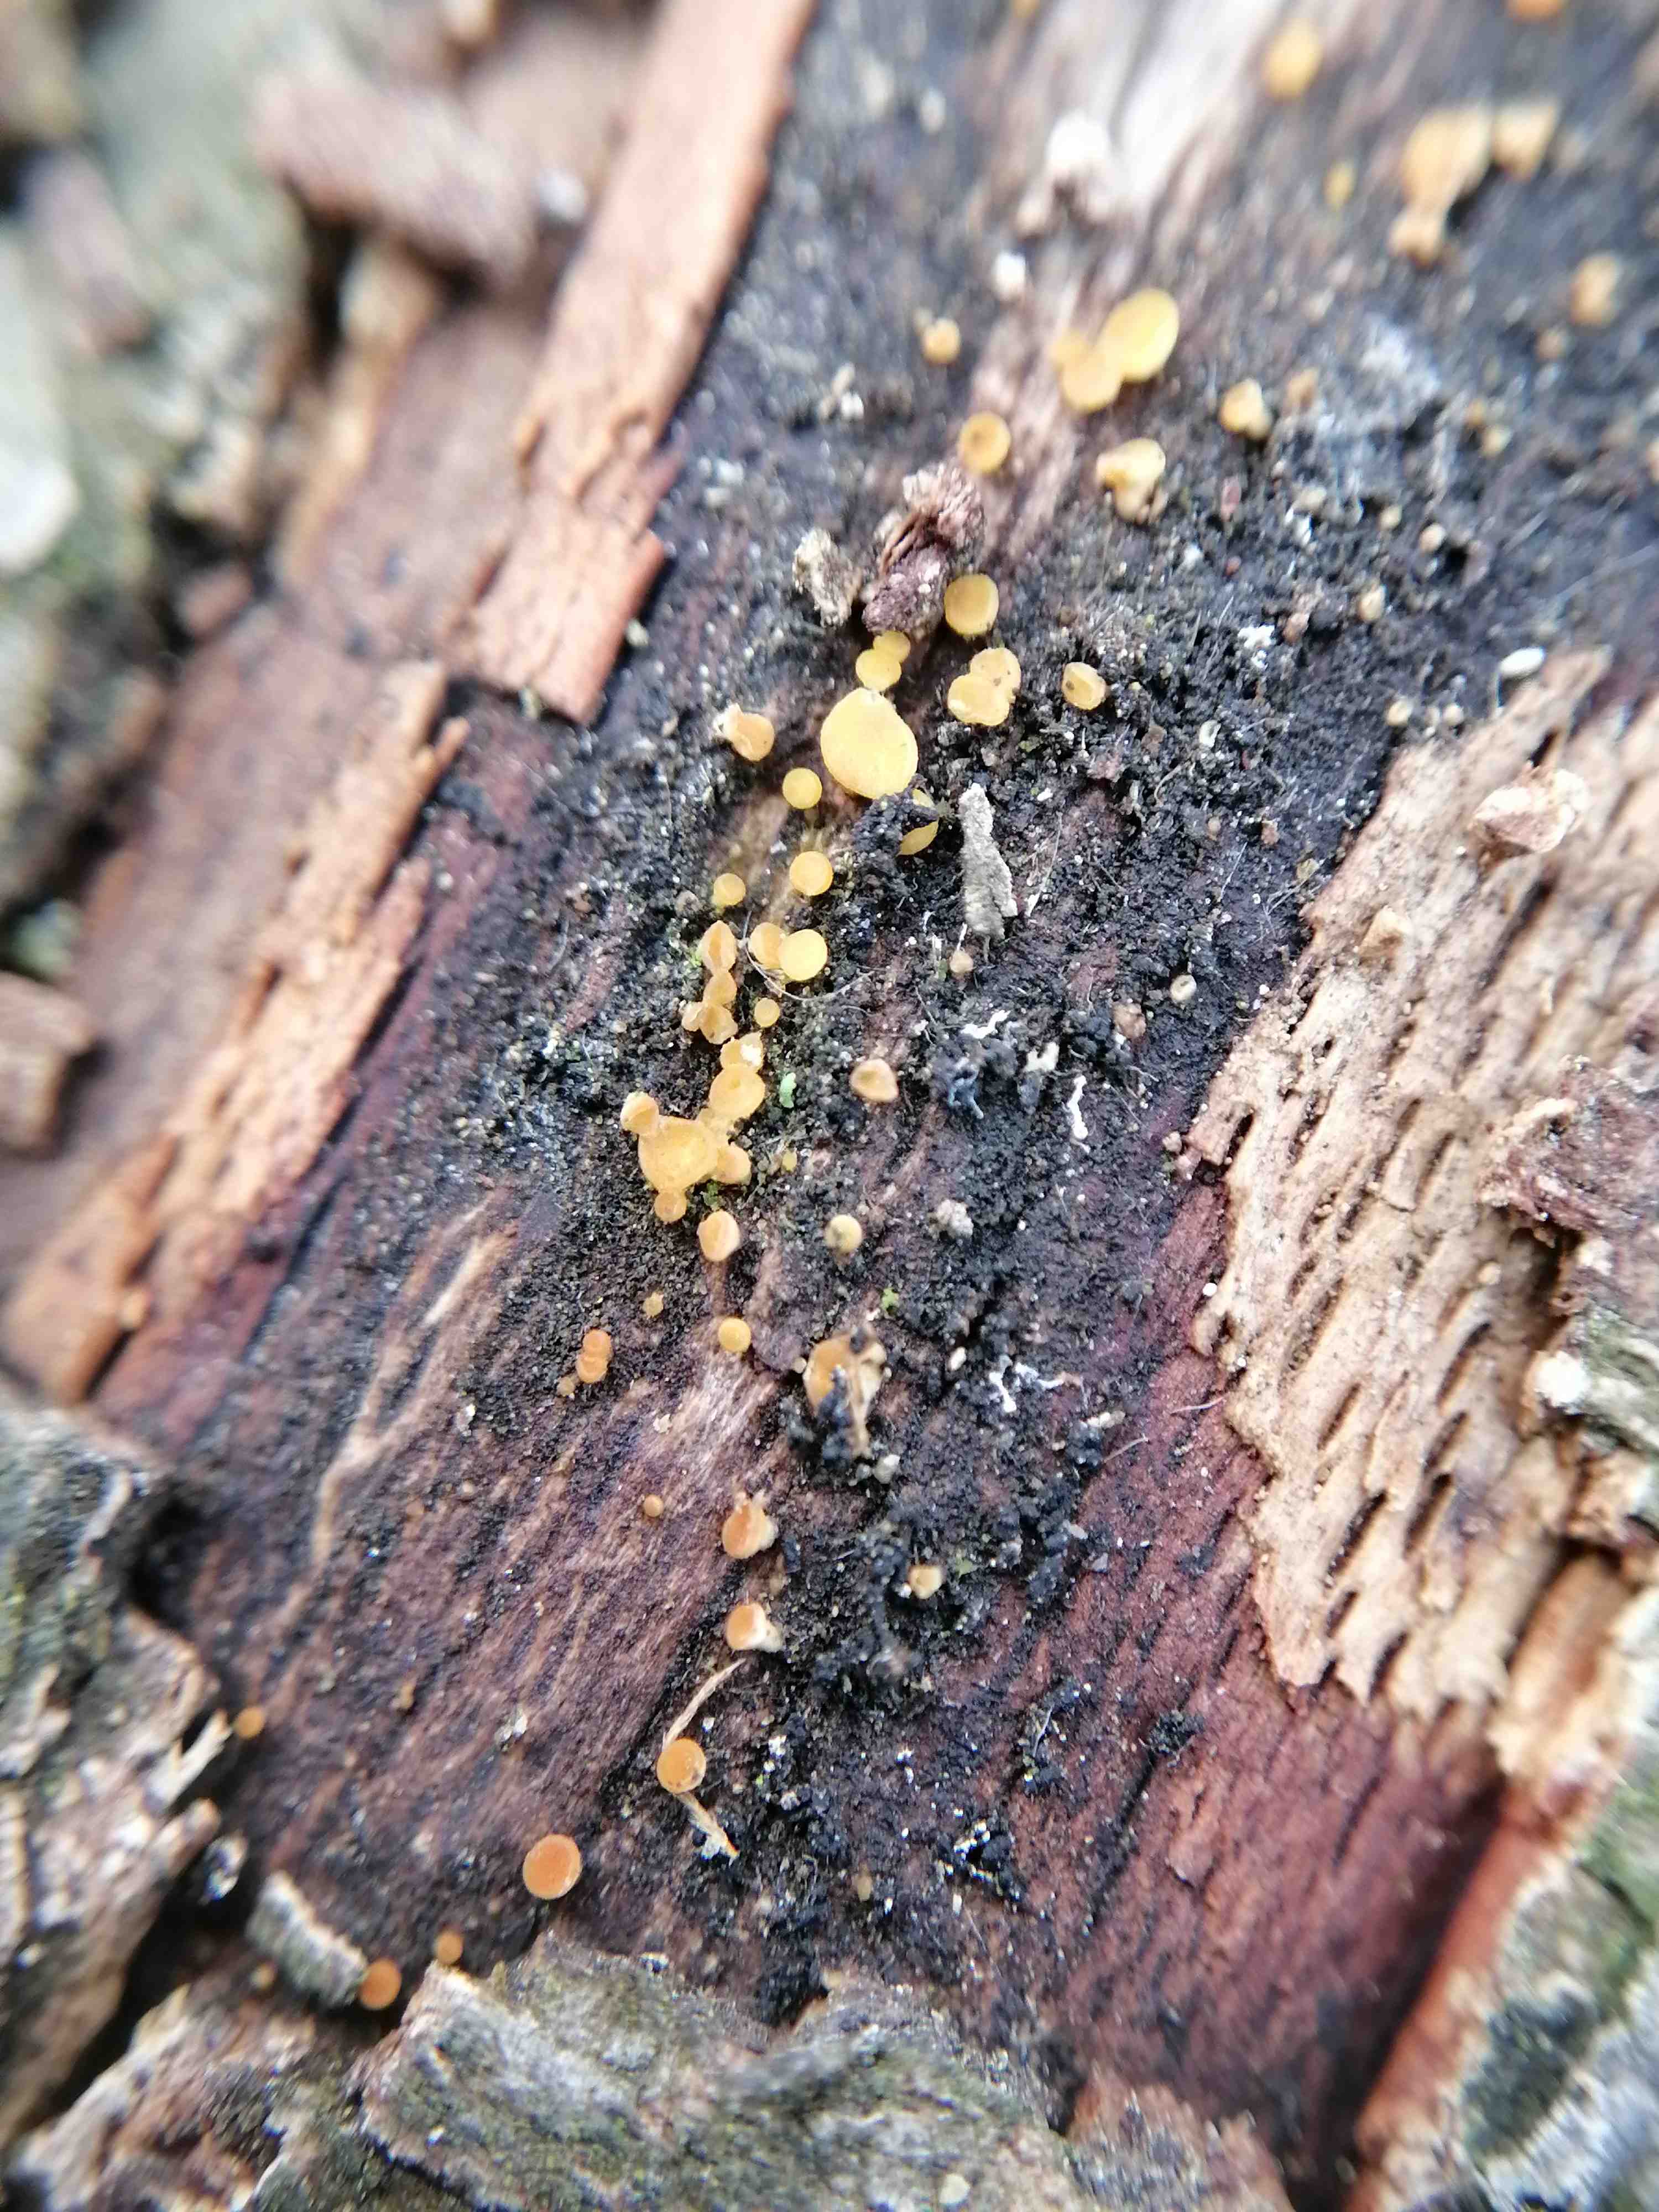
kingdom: Fungi
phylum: Ascomycota
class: Leotiomycetes
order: Helotiales
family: Helotiaceae
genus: Bisporella
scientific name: Bisporella
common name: snitskive
